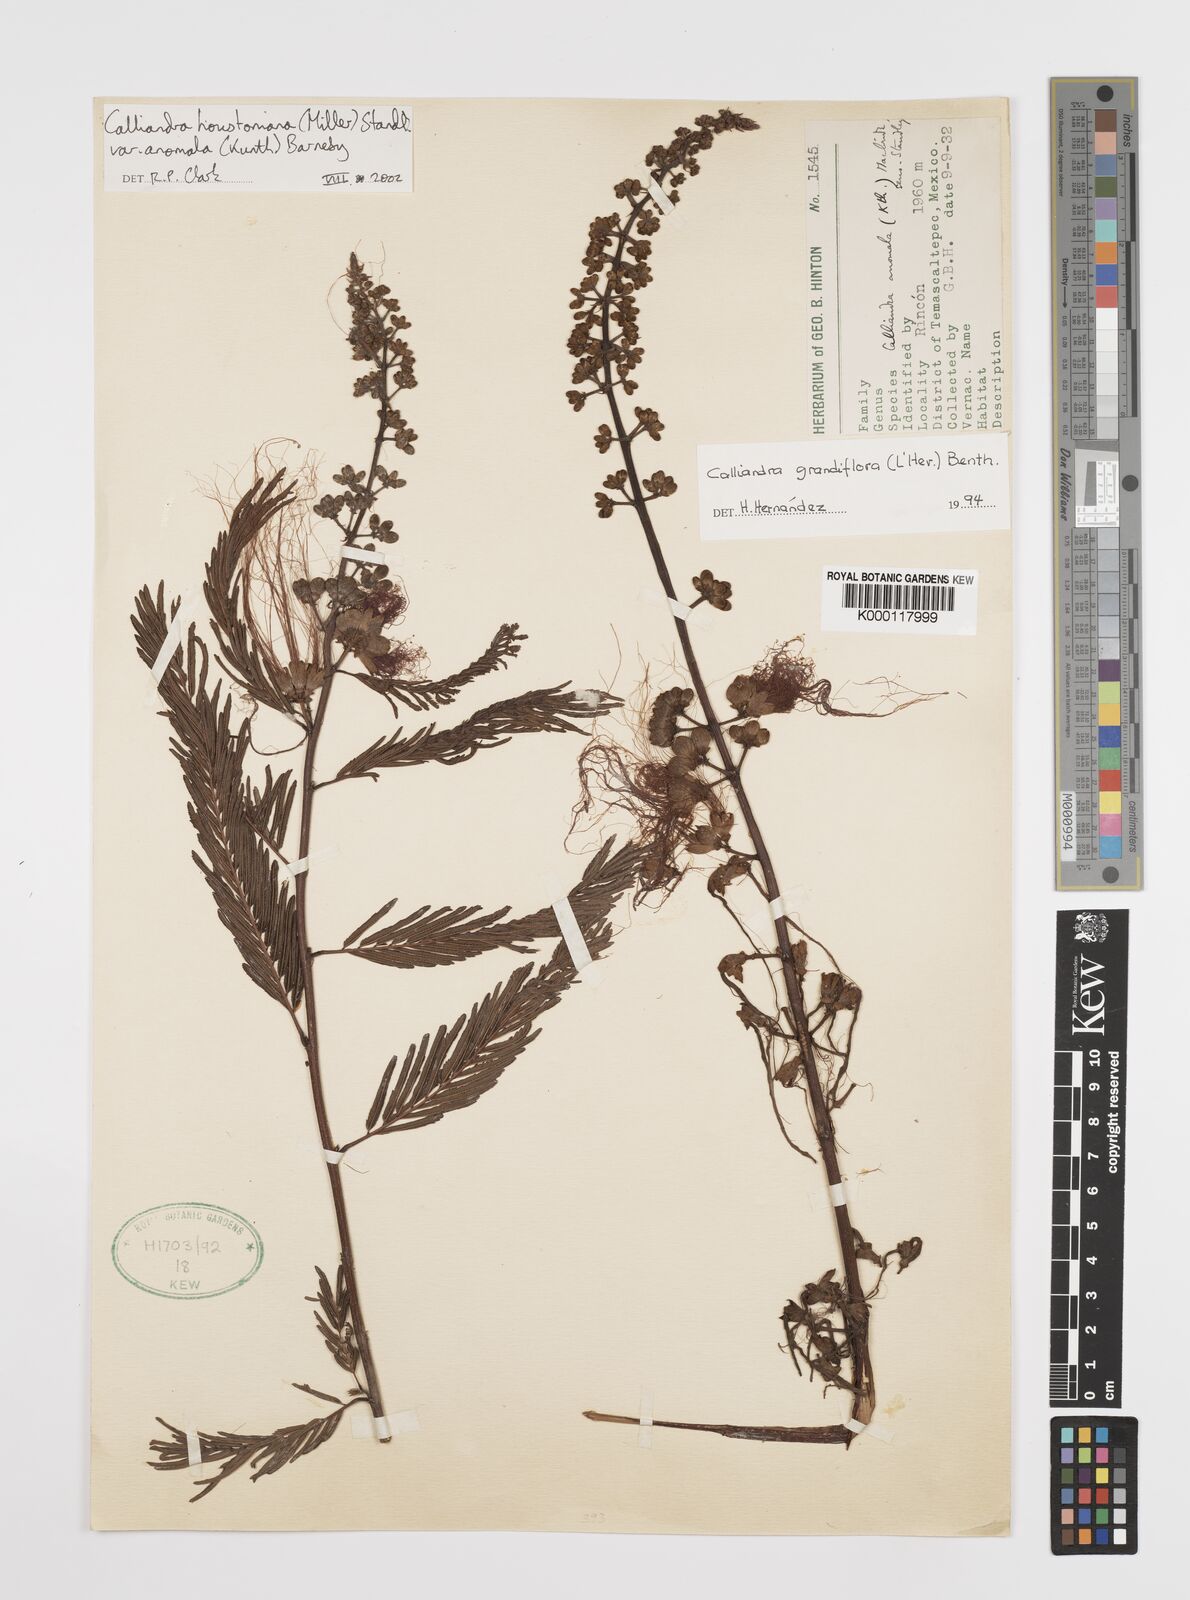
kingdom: Plantae
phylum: Tracheophyta
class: Magnoliopsida
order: Fabales
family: Fabaceae
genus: Calliandra
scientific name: Calliandra houstoniana
